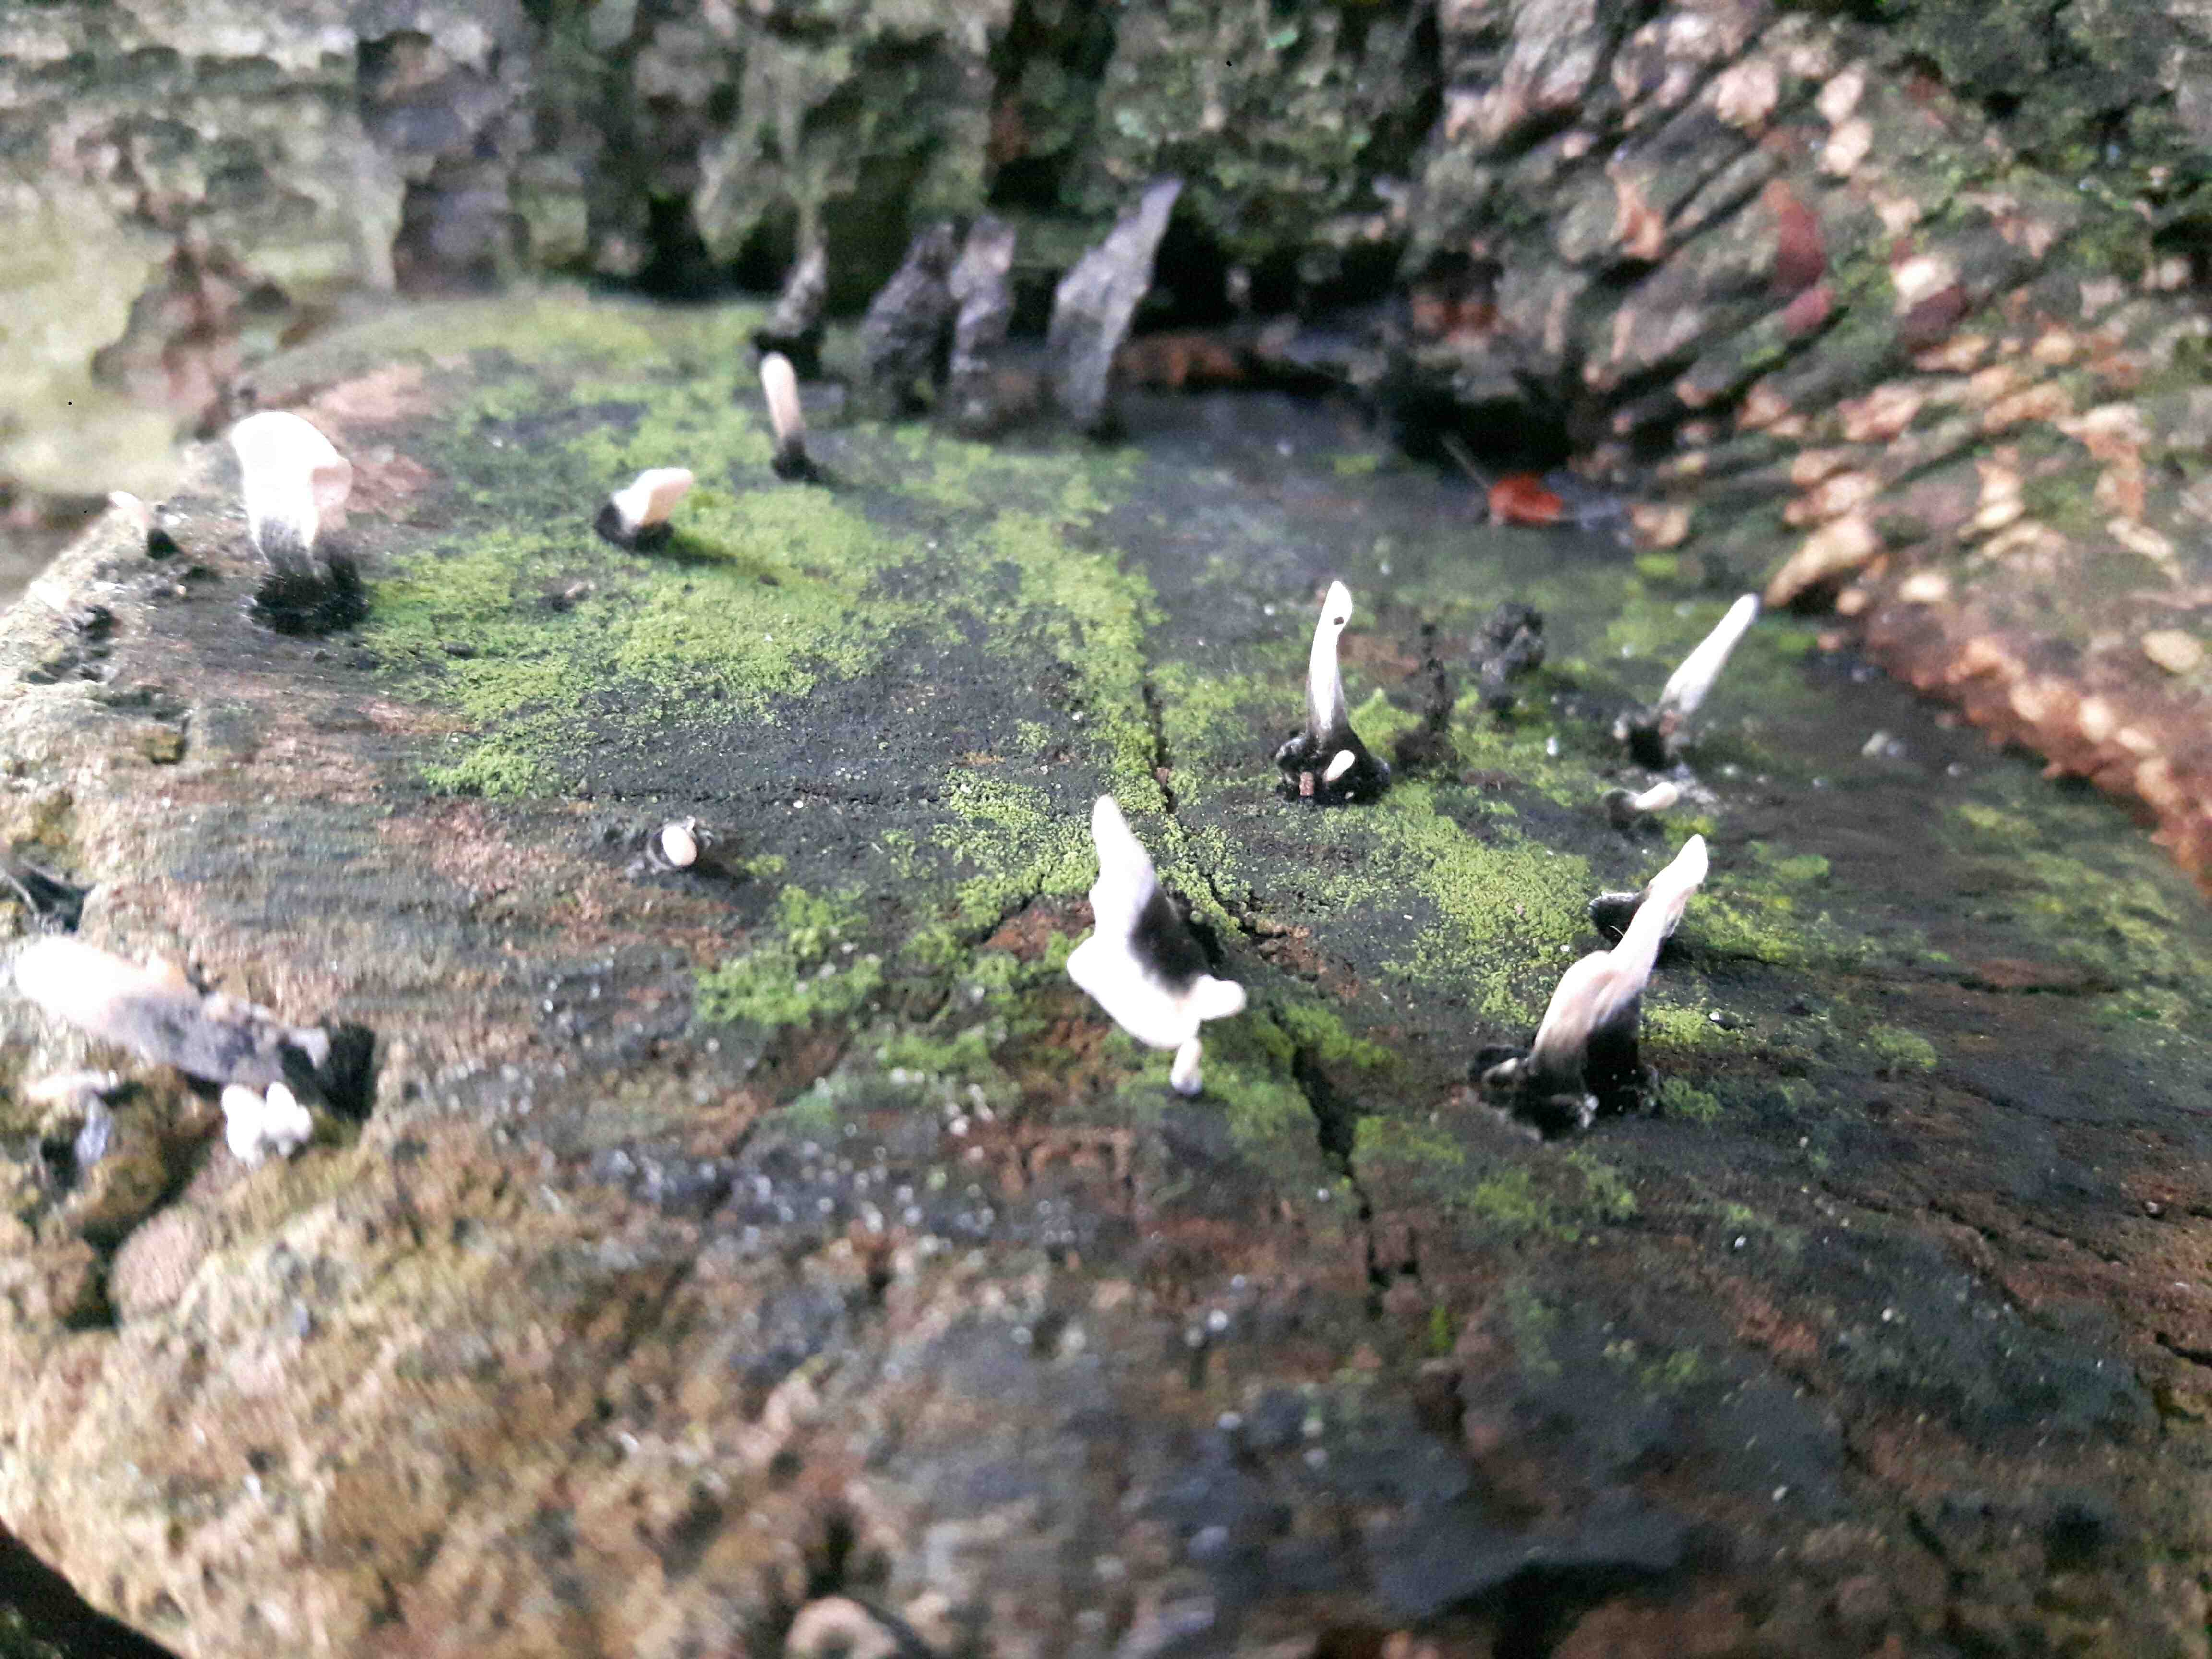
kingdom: Fungi
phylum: Ascomycota
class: Sordariomycetes
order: Xylariales
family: Xylariaceae
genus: Xylaria
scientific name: Xylaria hypoxylon
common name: grenet stødsvamp
